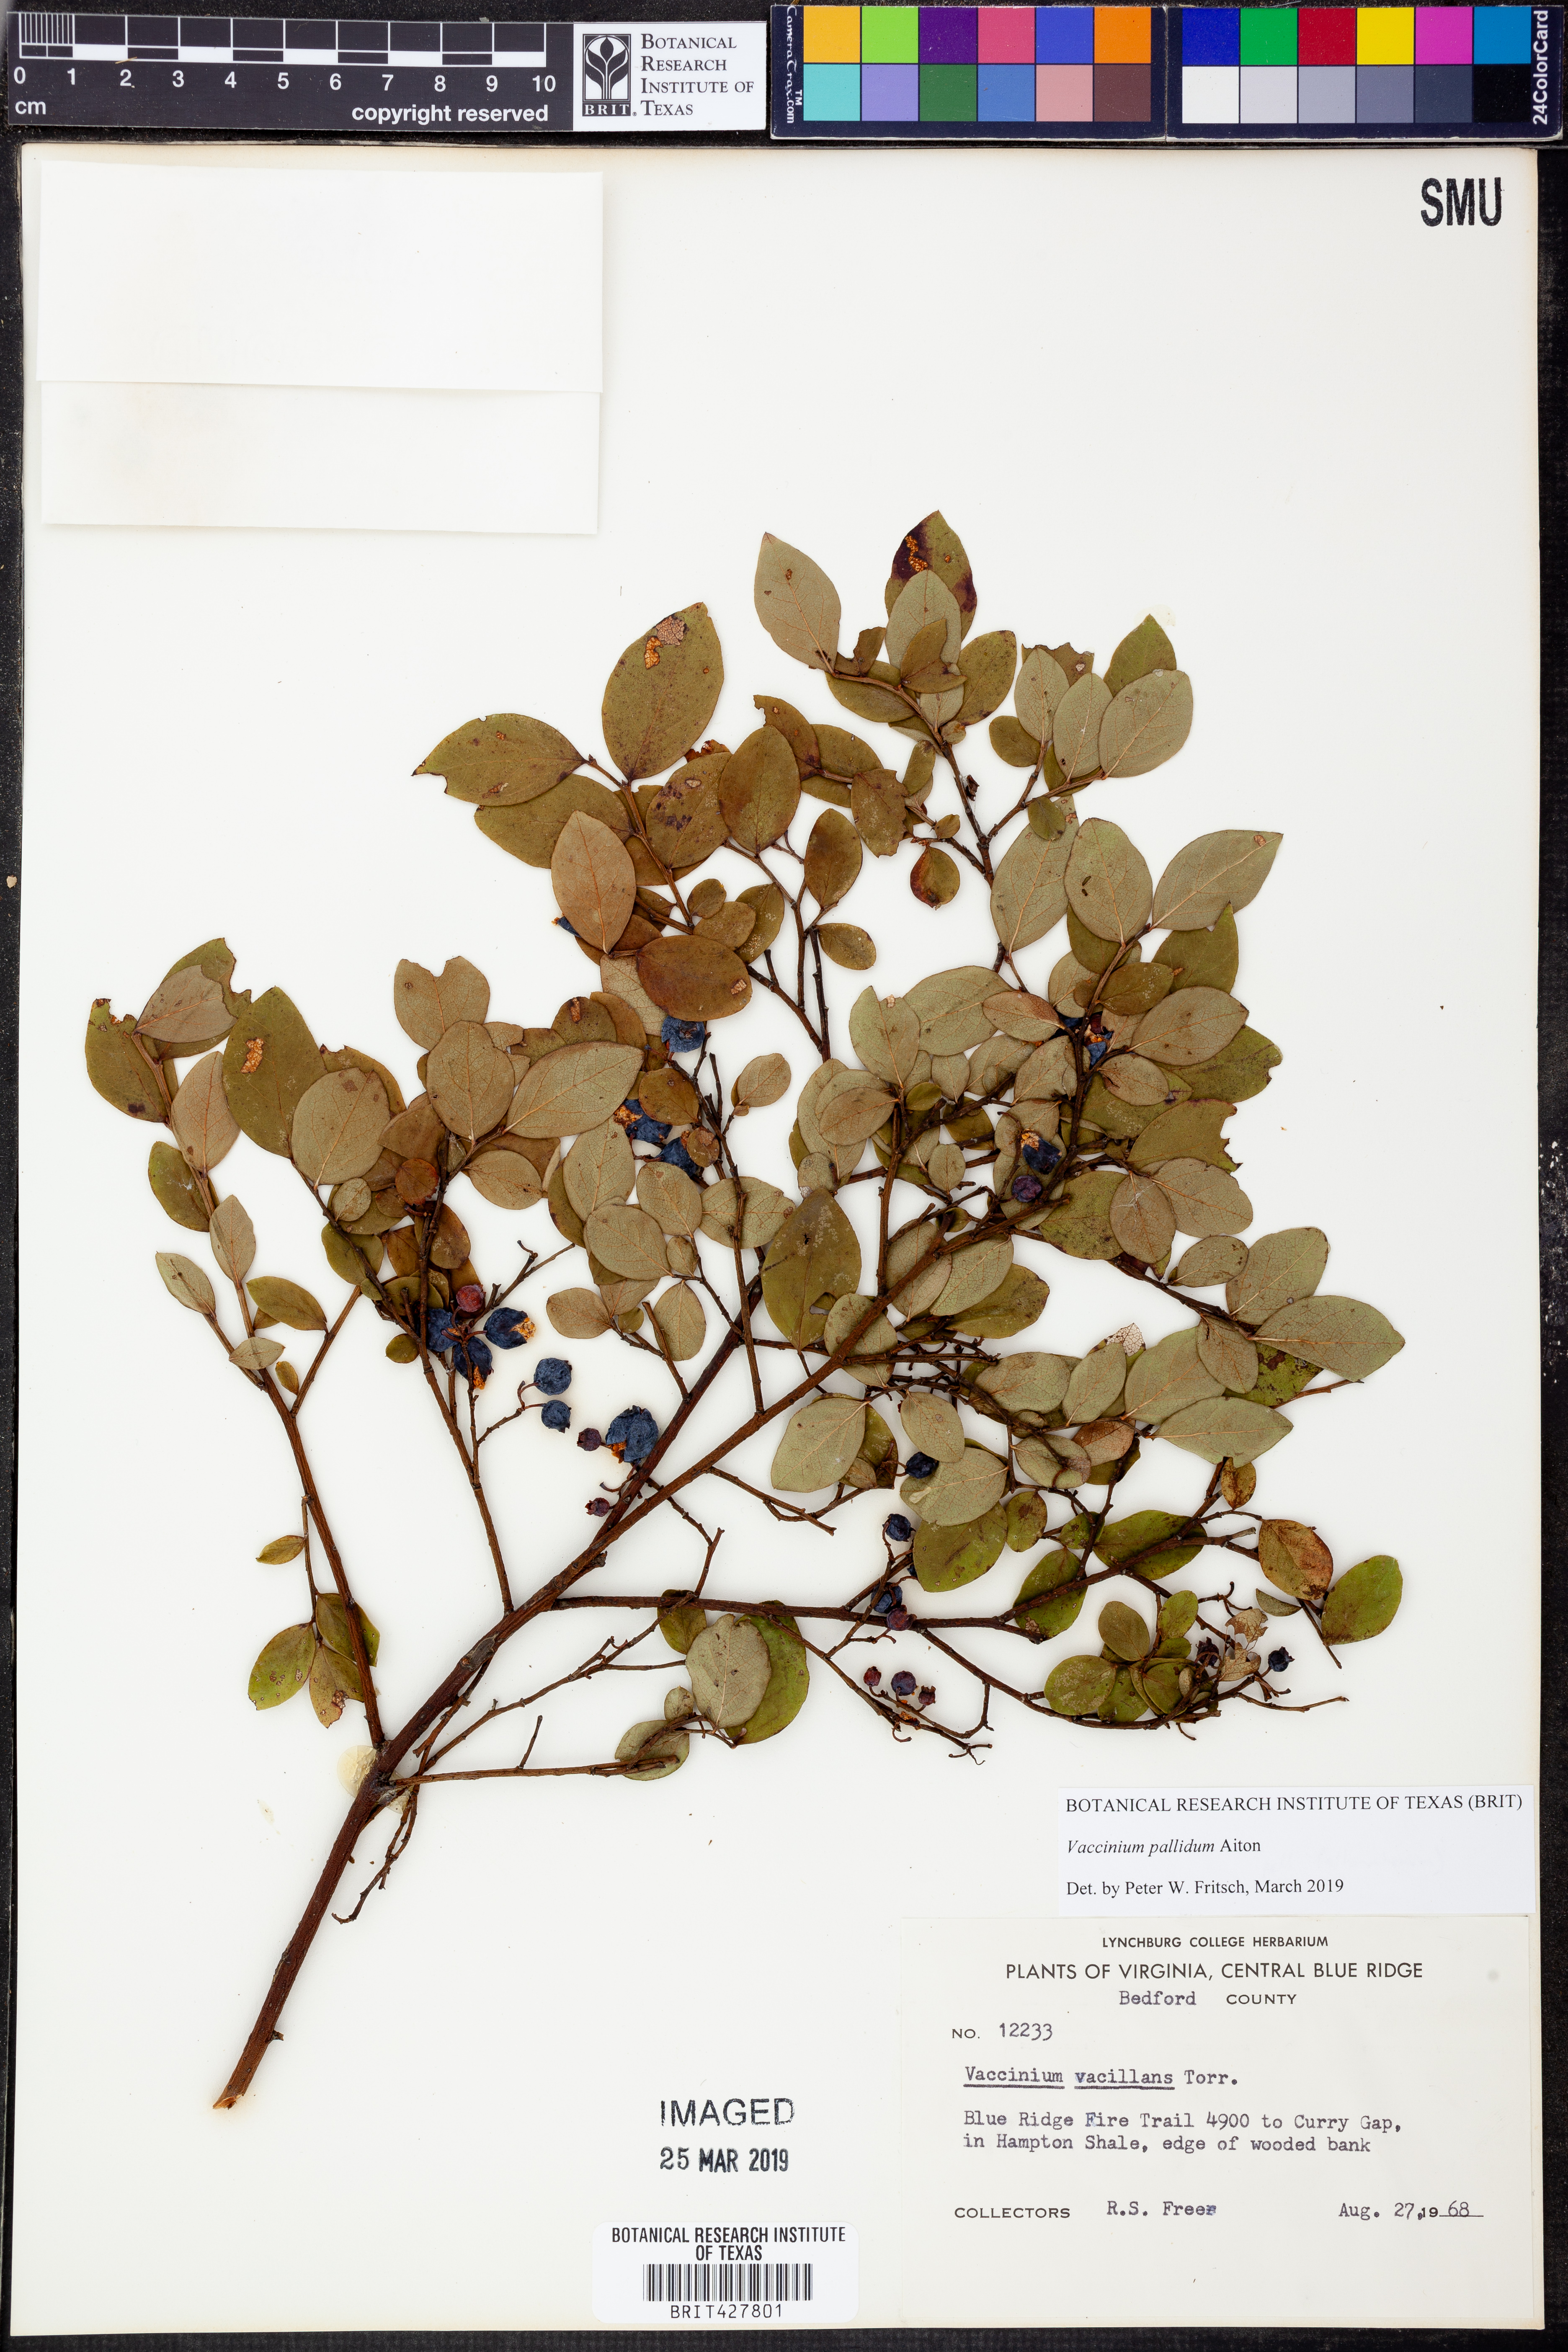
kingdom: Plantae
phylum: Tracheophyta
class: Magnoliopsida
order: Ericales
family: Ericaceae
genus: Vaccinium
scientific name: Vaccinium pallidum
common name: Blue ridge blueberry
